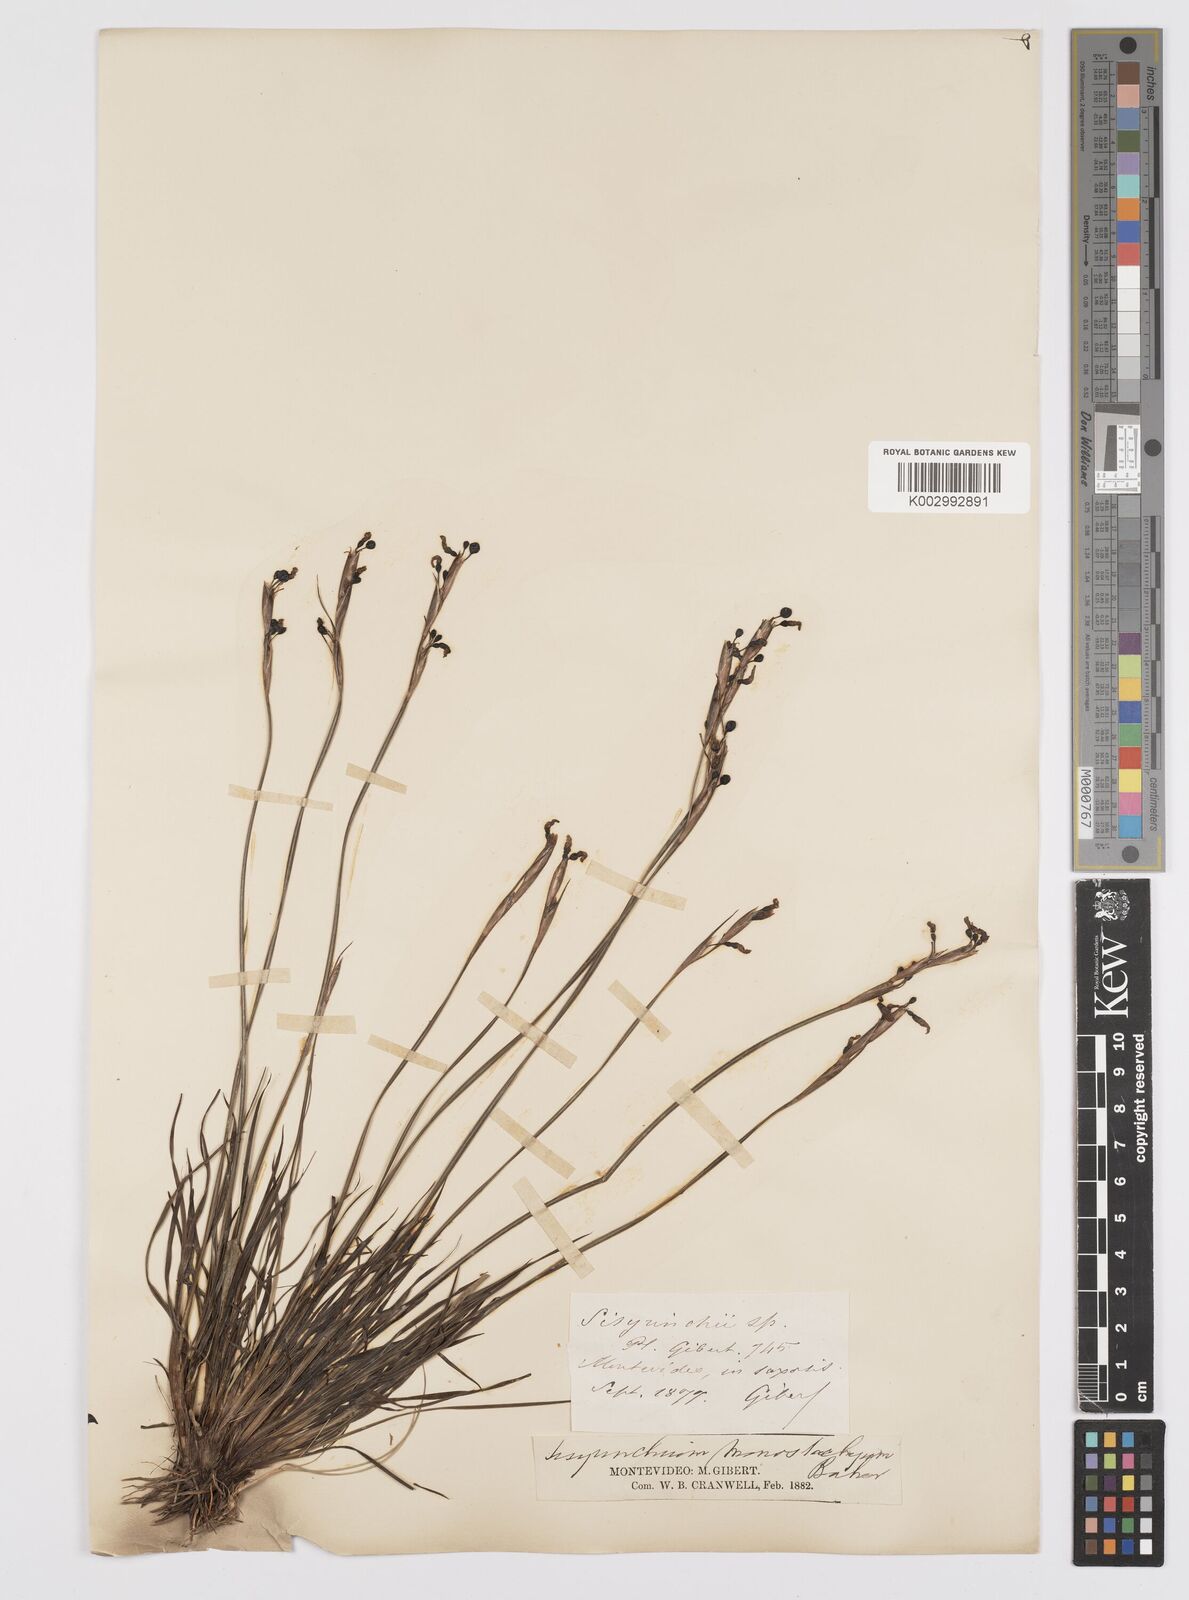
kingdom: Plantae
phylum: Tracheophyta
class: Liliopsida
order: Asparagales
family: Iridaceae
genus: Sisyrinchium
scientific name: Sisyrinchium avenaceum
